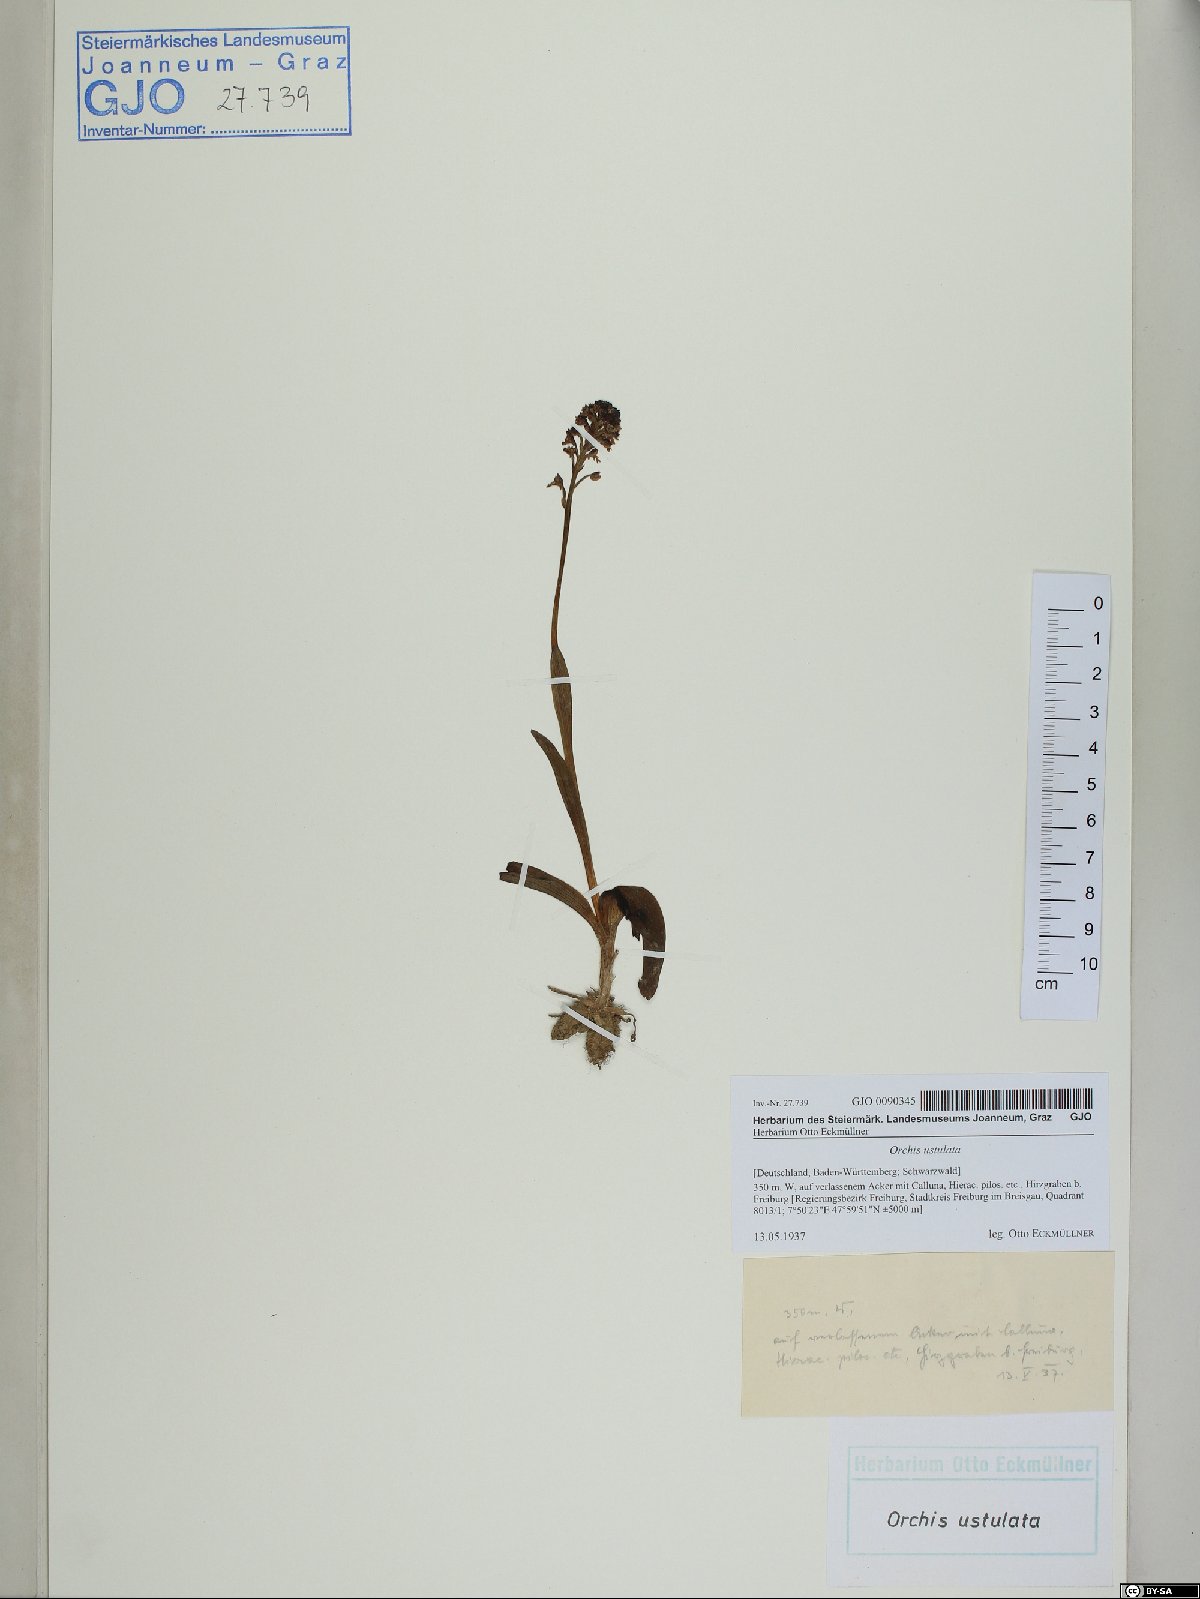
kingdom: Plantae
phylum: Tracheophyta
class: Liliopsida
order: Asparagales
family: Orchidaceae
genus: Neotinea
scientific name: Neotinea ustulata
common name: Burnt orchid
